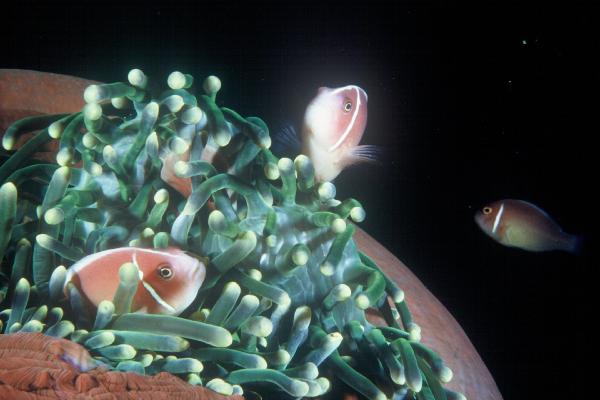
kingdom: Animalia
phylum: Chordata
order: Perciformes
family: Pomacentridae
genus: Amphiprion
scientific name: Amphiprion perideraion
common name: Pink anemonefish
